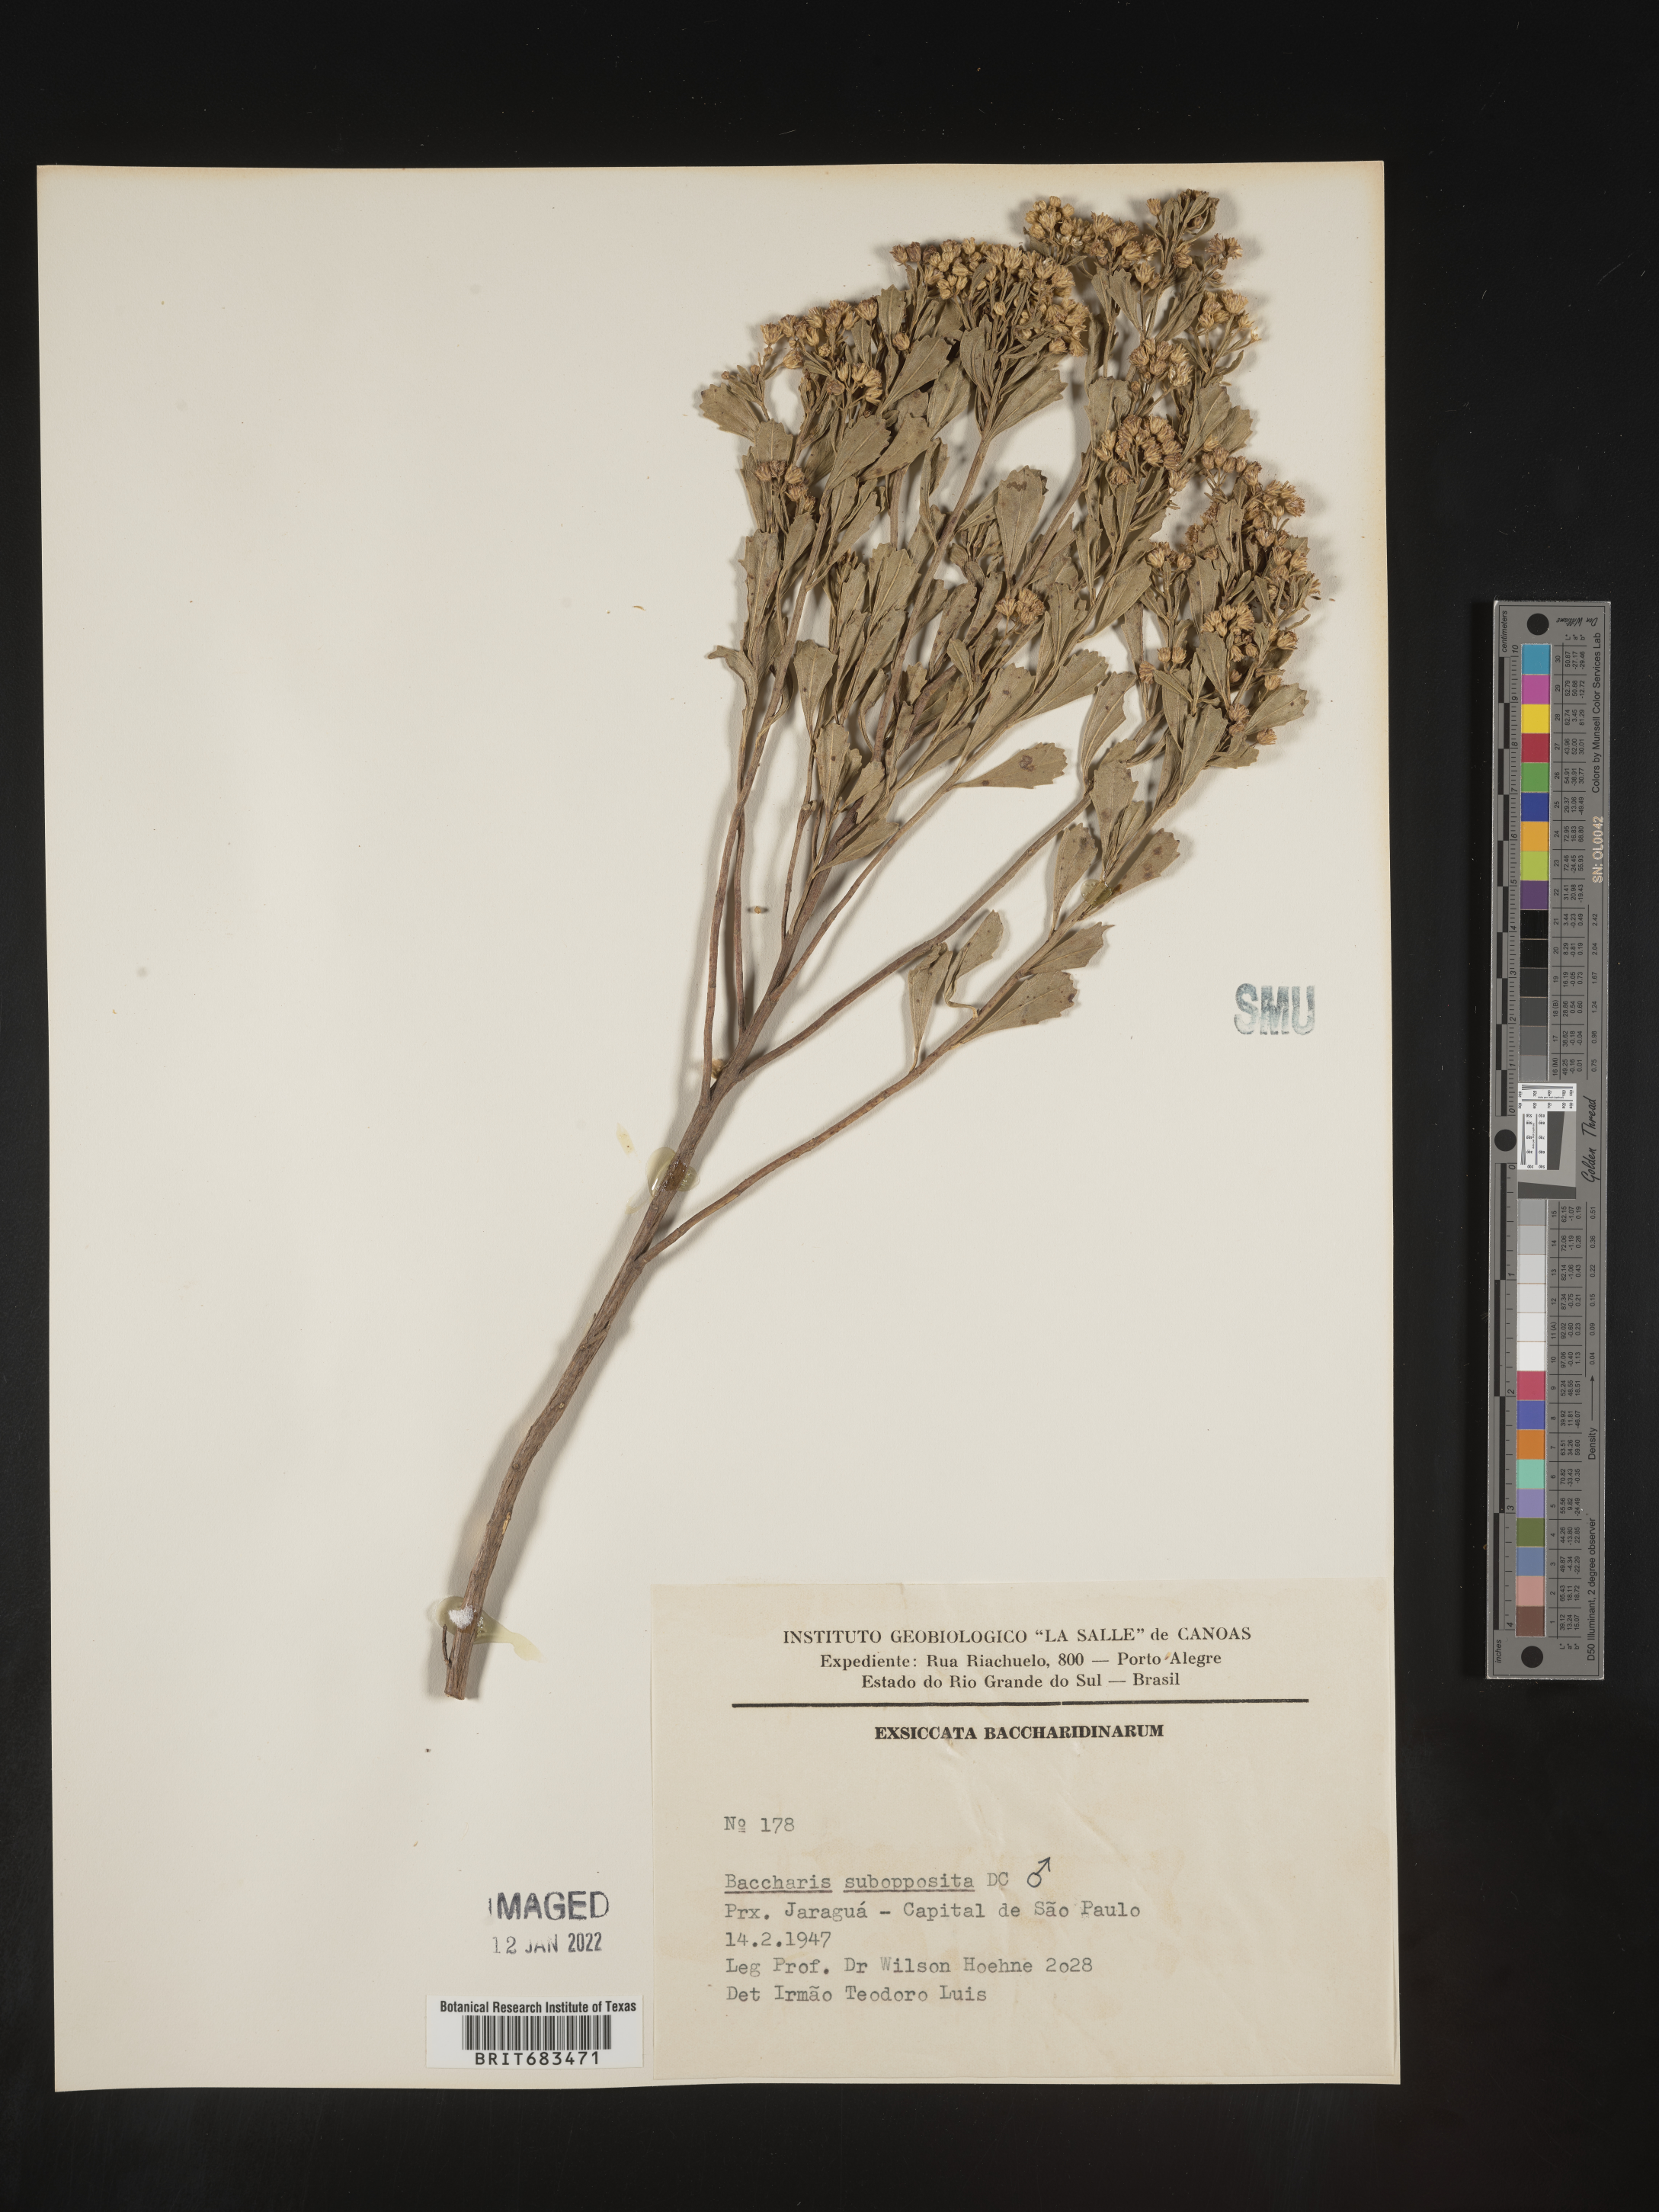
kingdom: Plantae
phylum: Tracheophyta
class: Magnoliopsida
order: Asterales
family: Asteraceae
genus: Baccharis
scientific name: Baccharis
